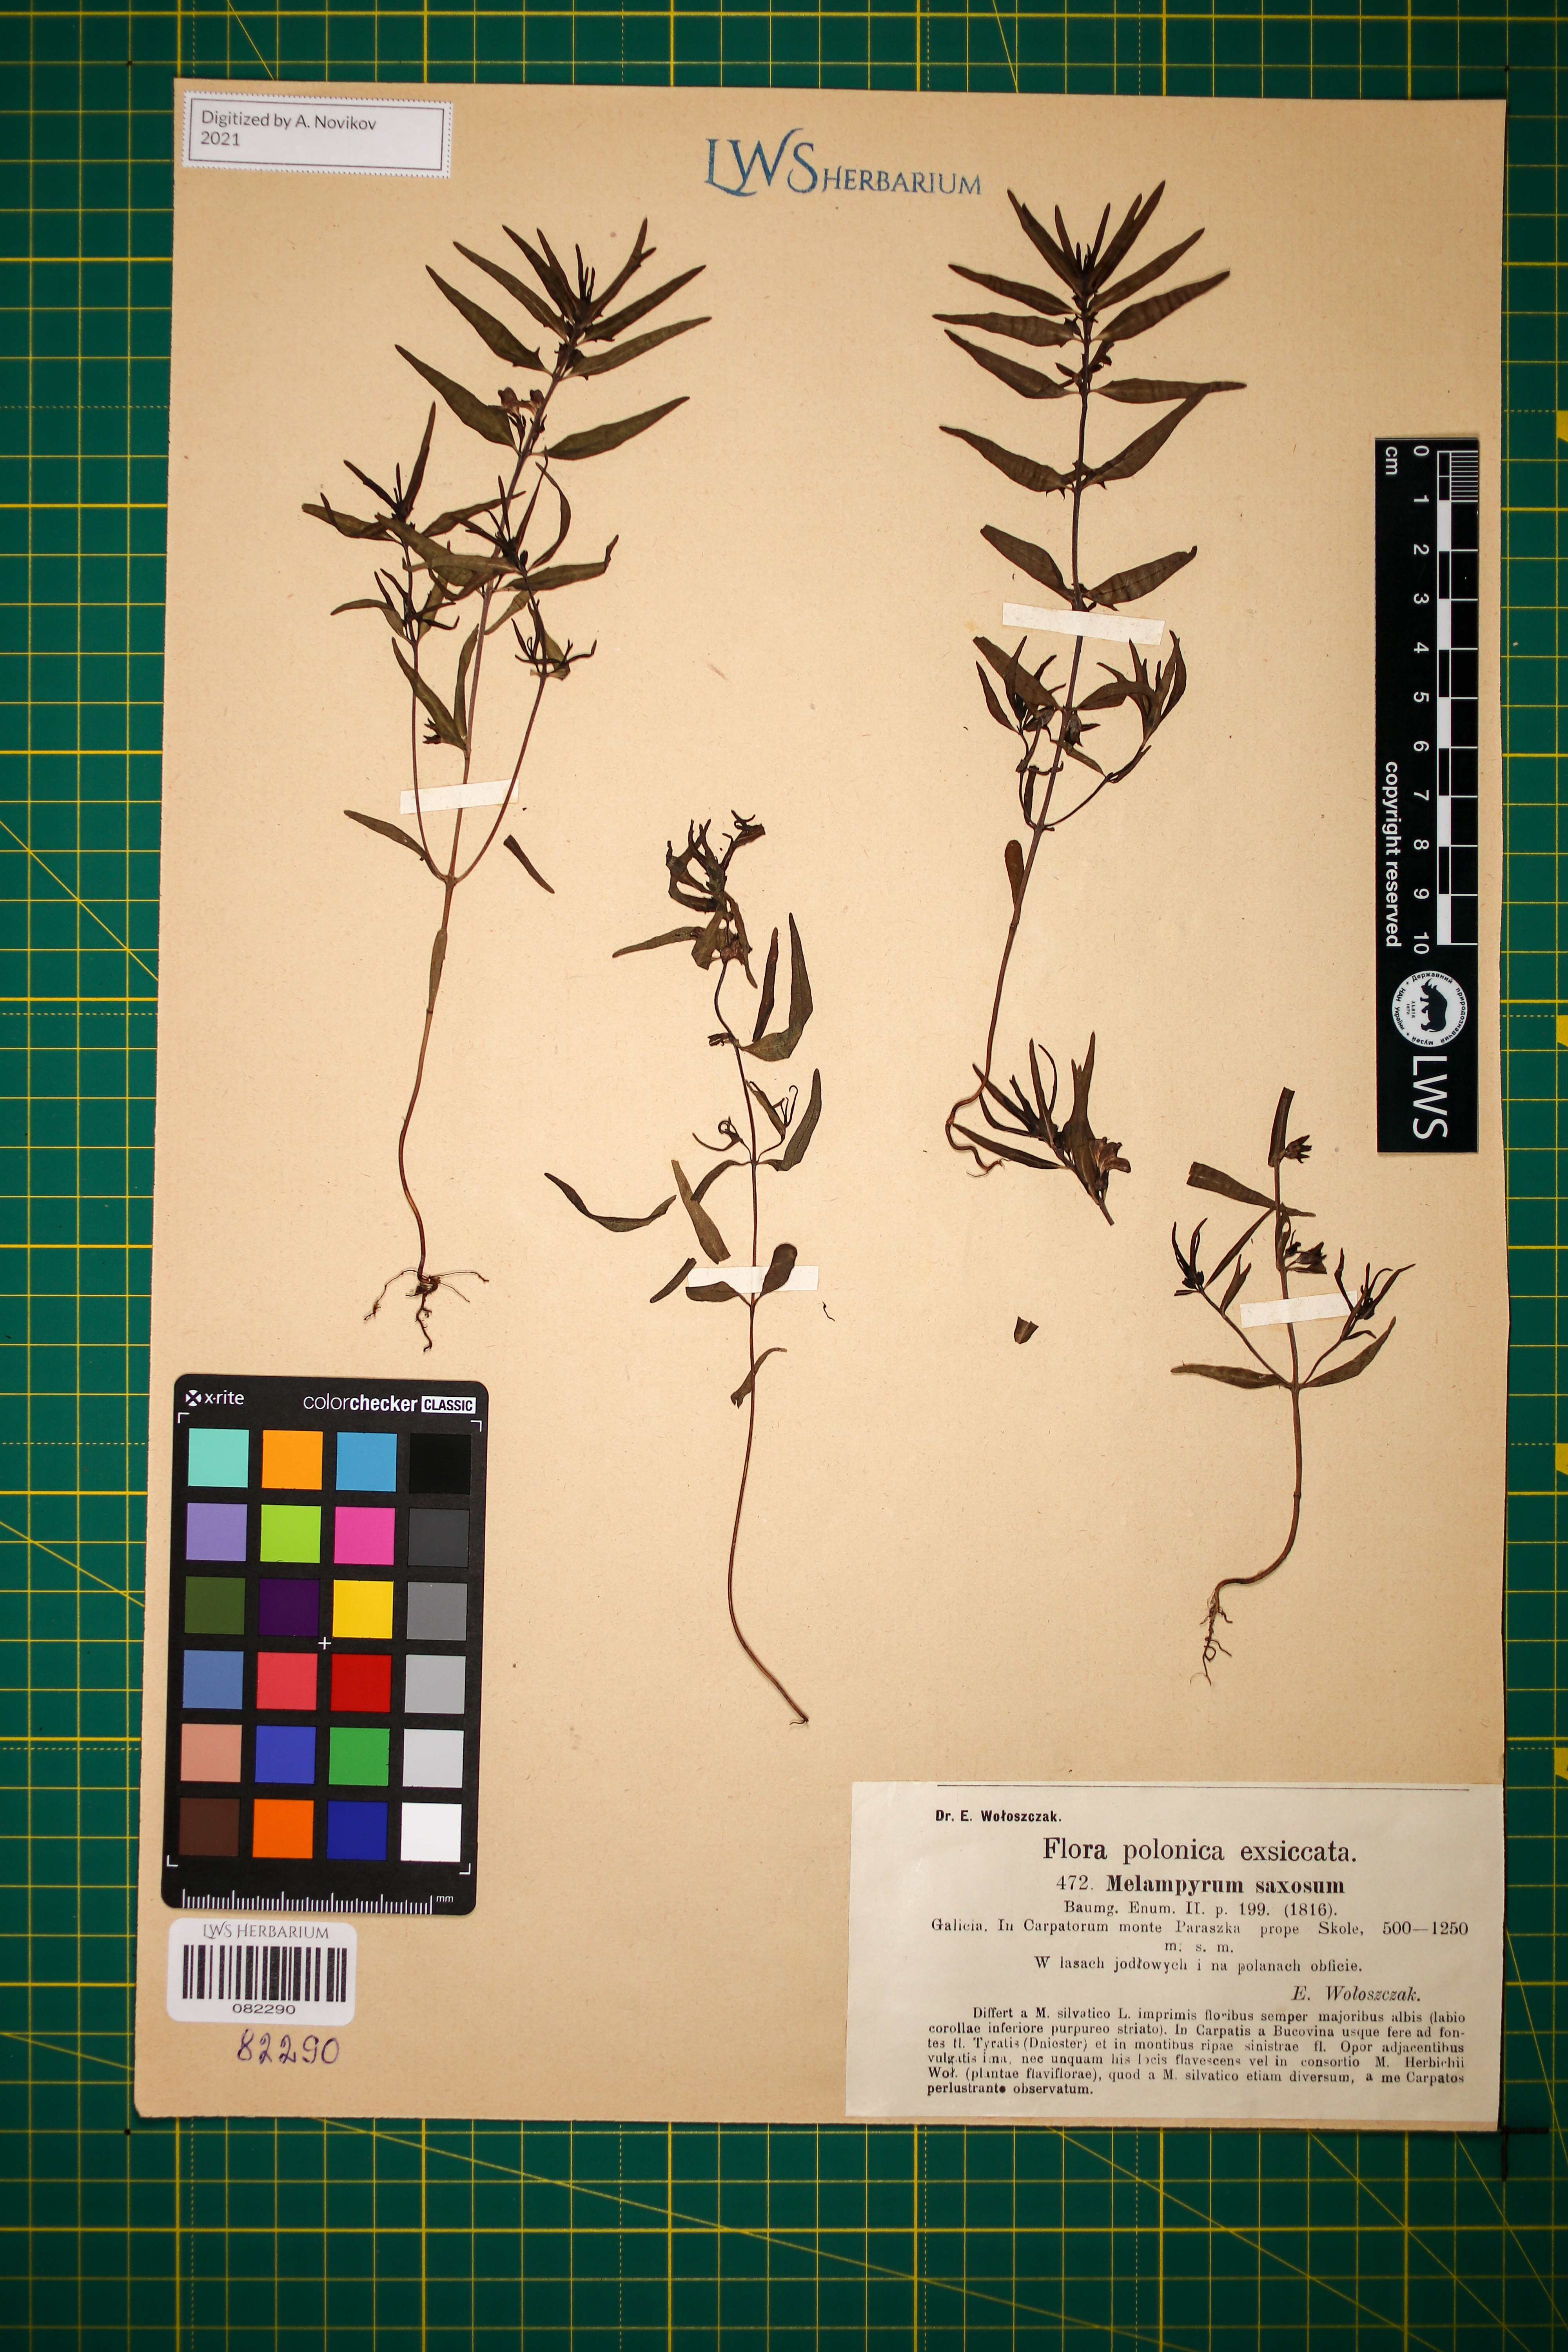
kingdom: Plantae
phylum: Tracheophyta
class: Magnoliopsida
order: Lamiales
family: Orobanchaceae
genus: Melampyrum
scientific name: Melampyrum saxosum
